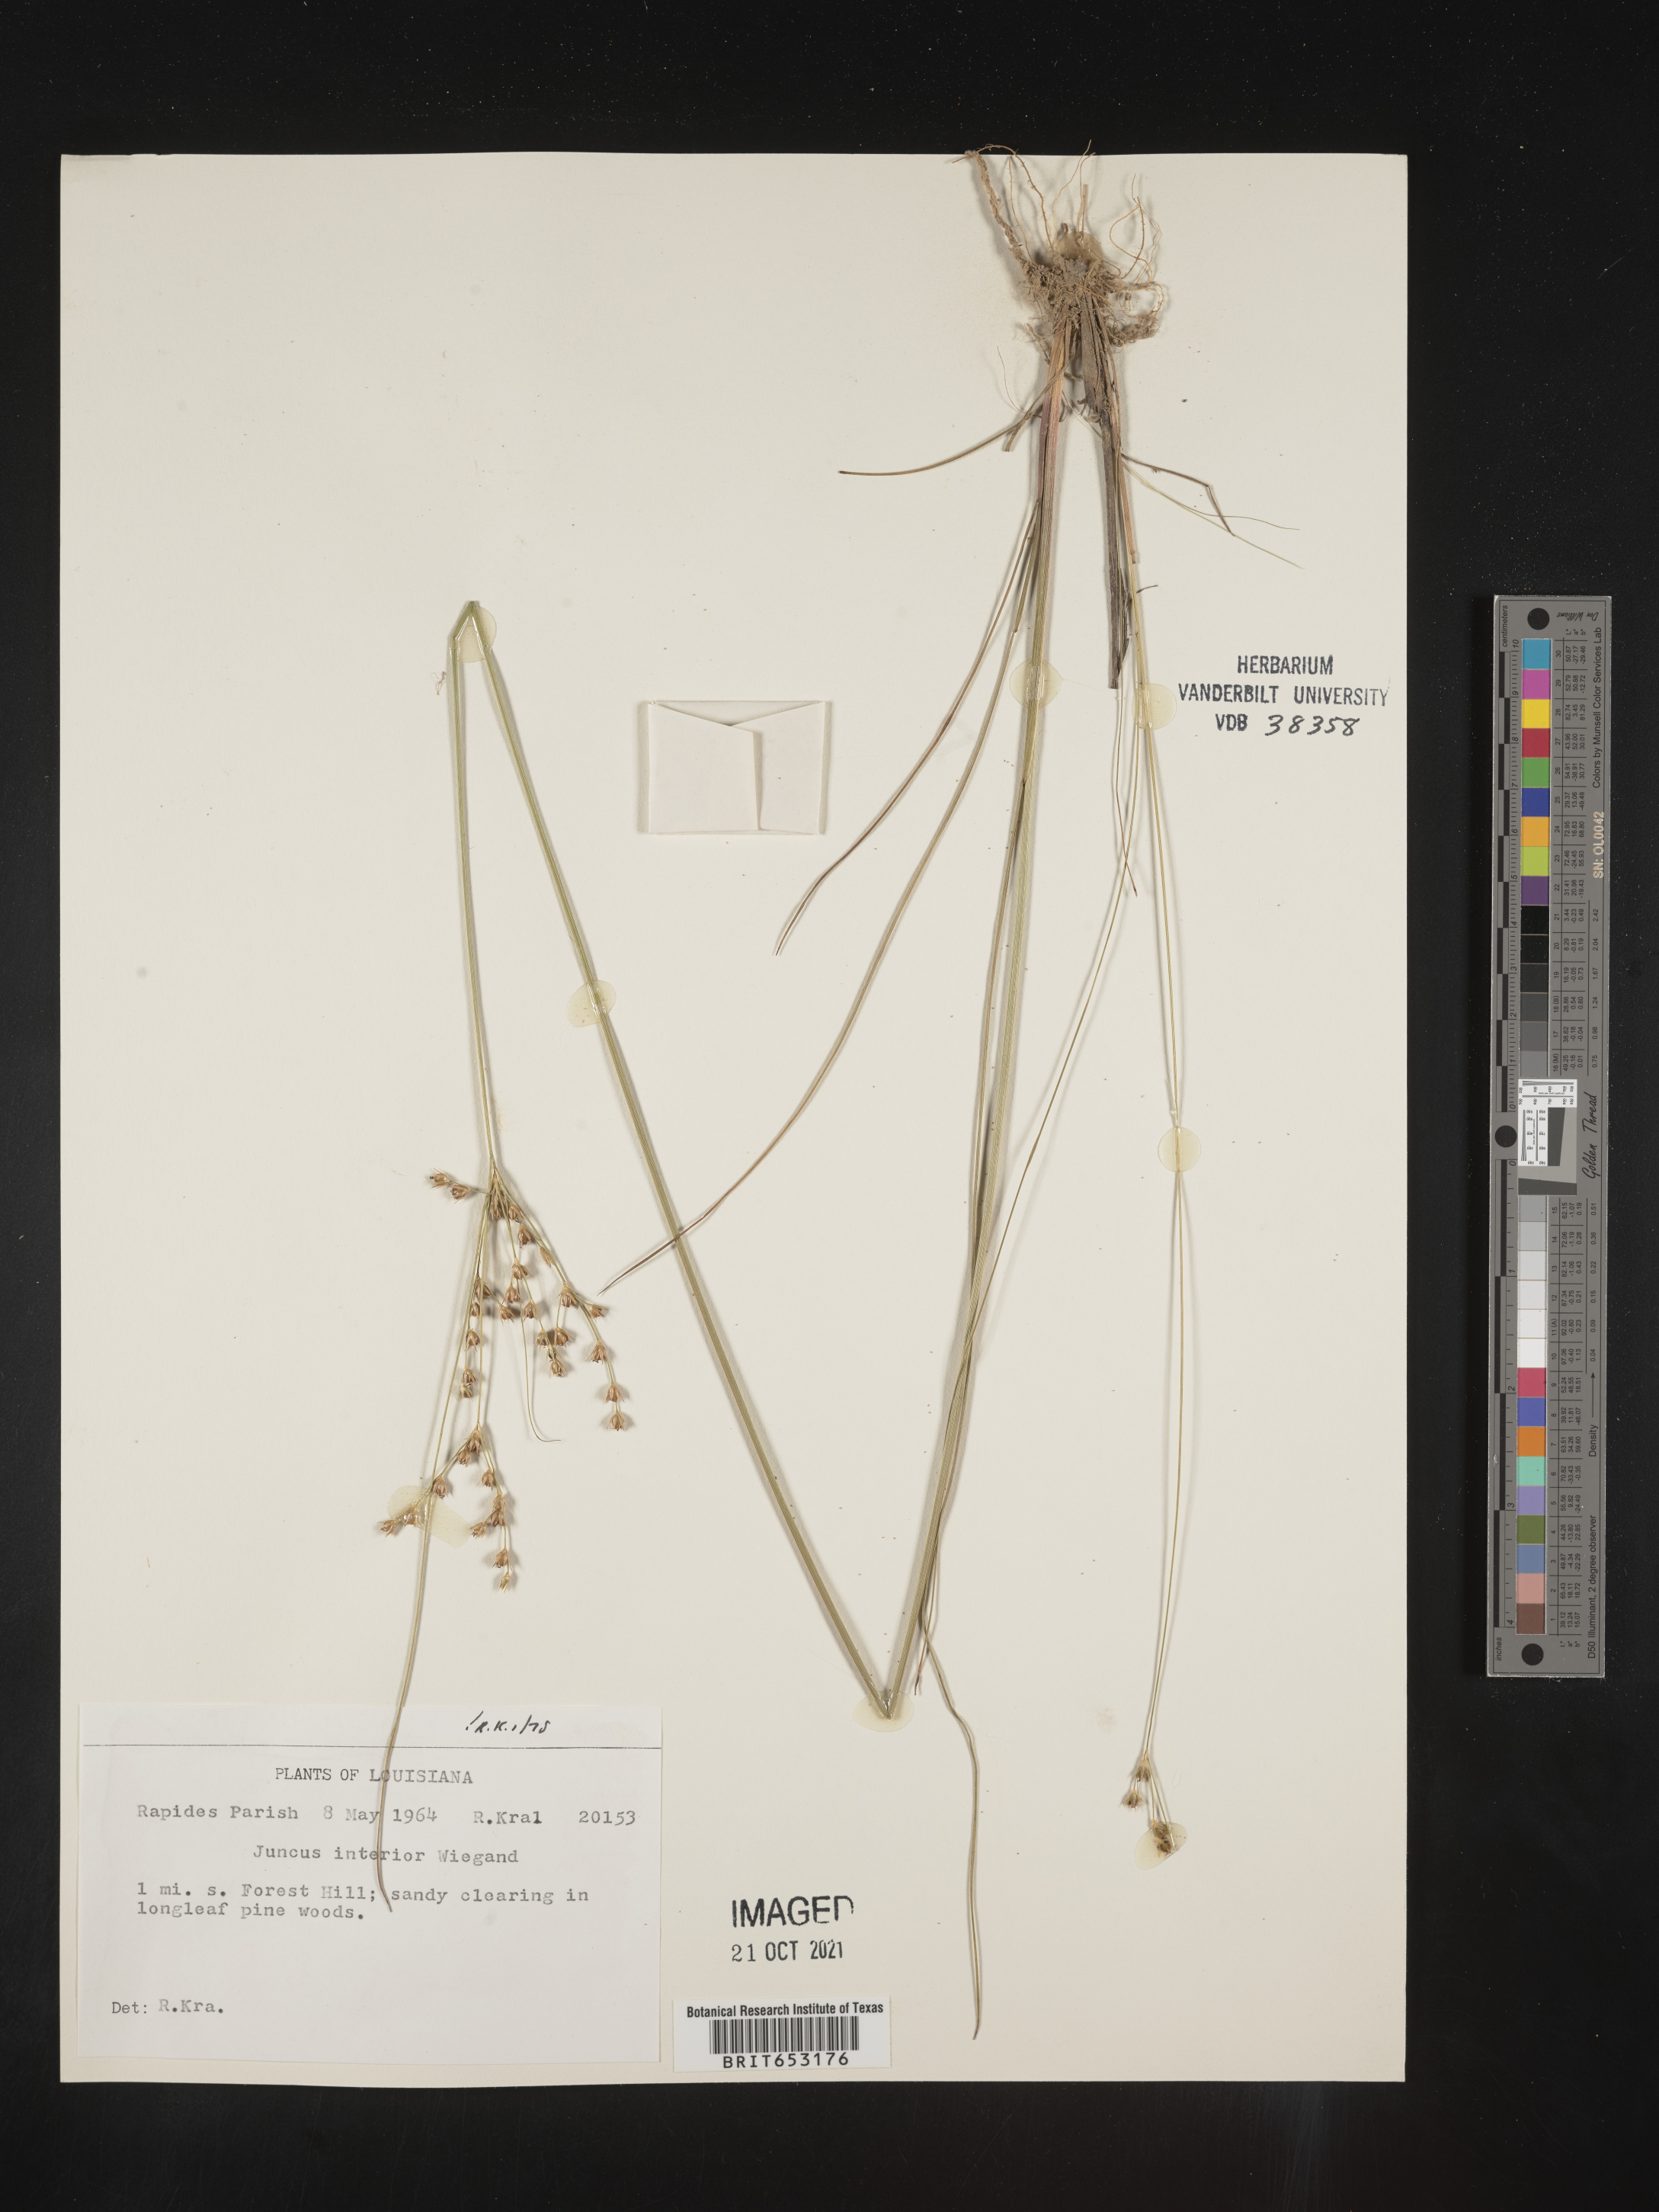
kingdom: Plantae
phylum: Tracheophyta
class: Liliopsida
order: Poales
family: Juncaceae
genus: Juncus
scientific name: Juncus interior
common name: Interior rush
